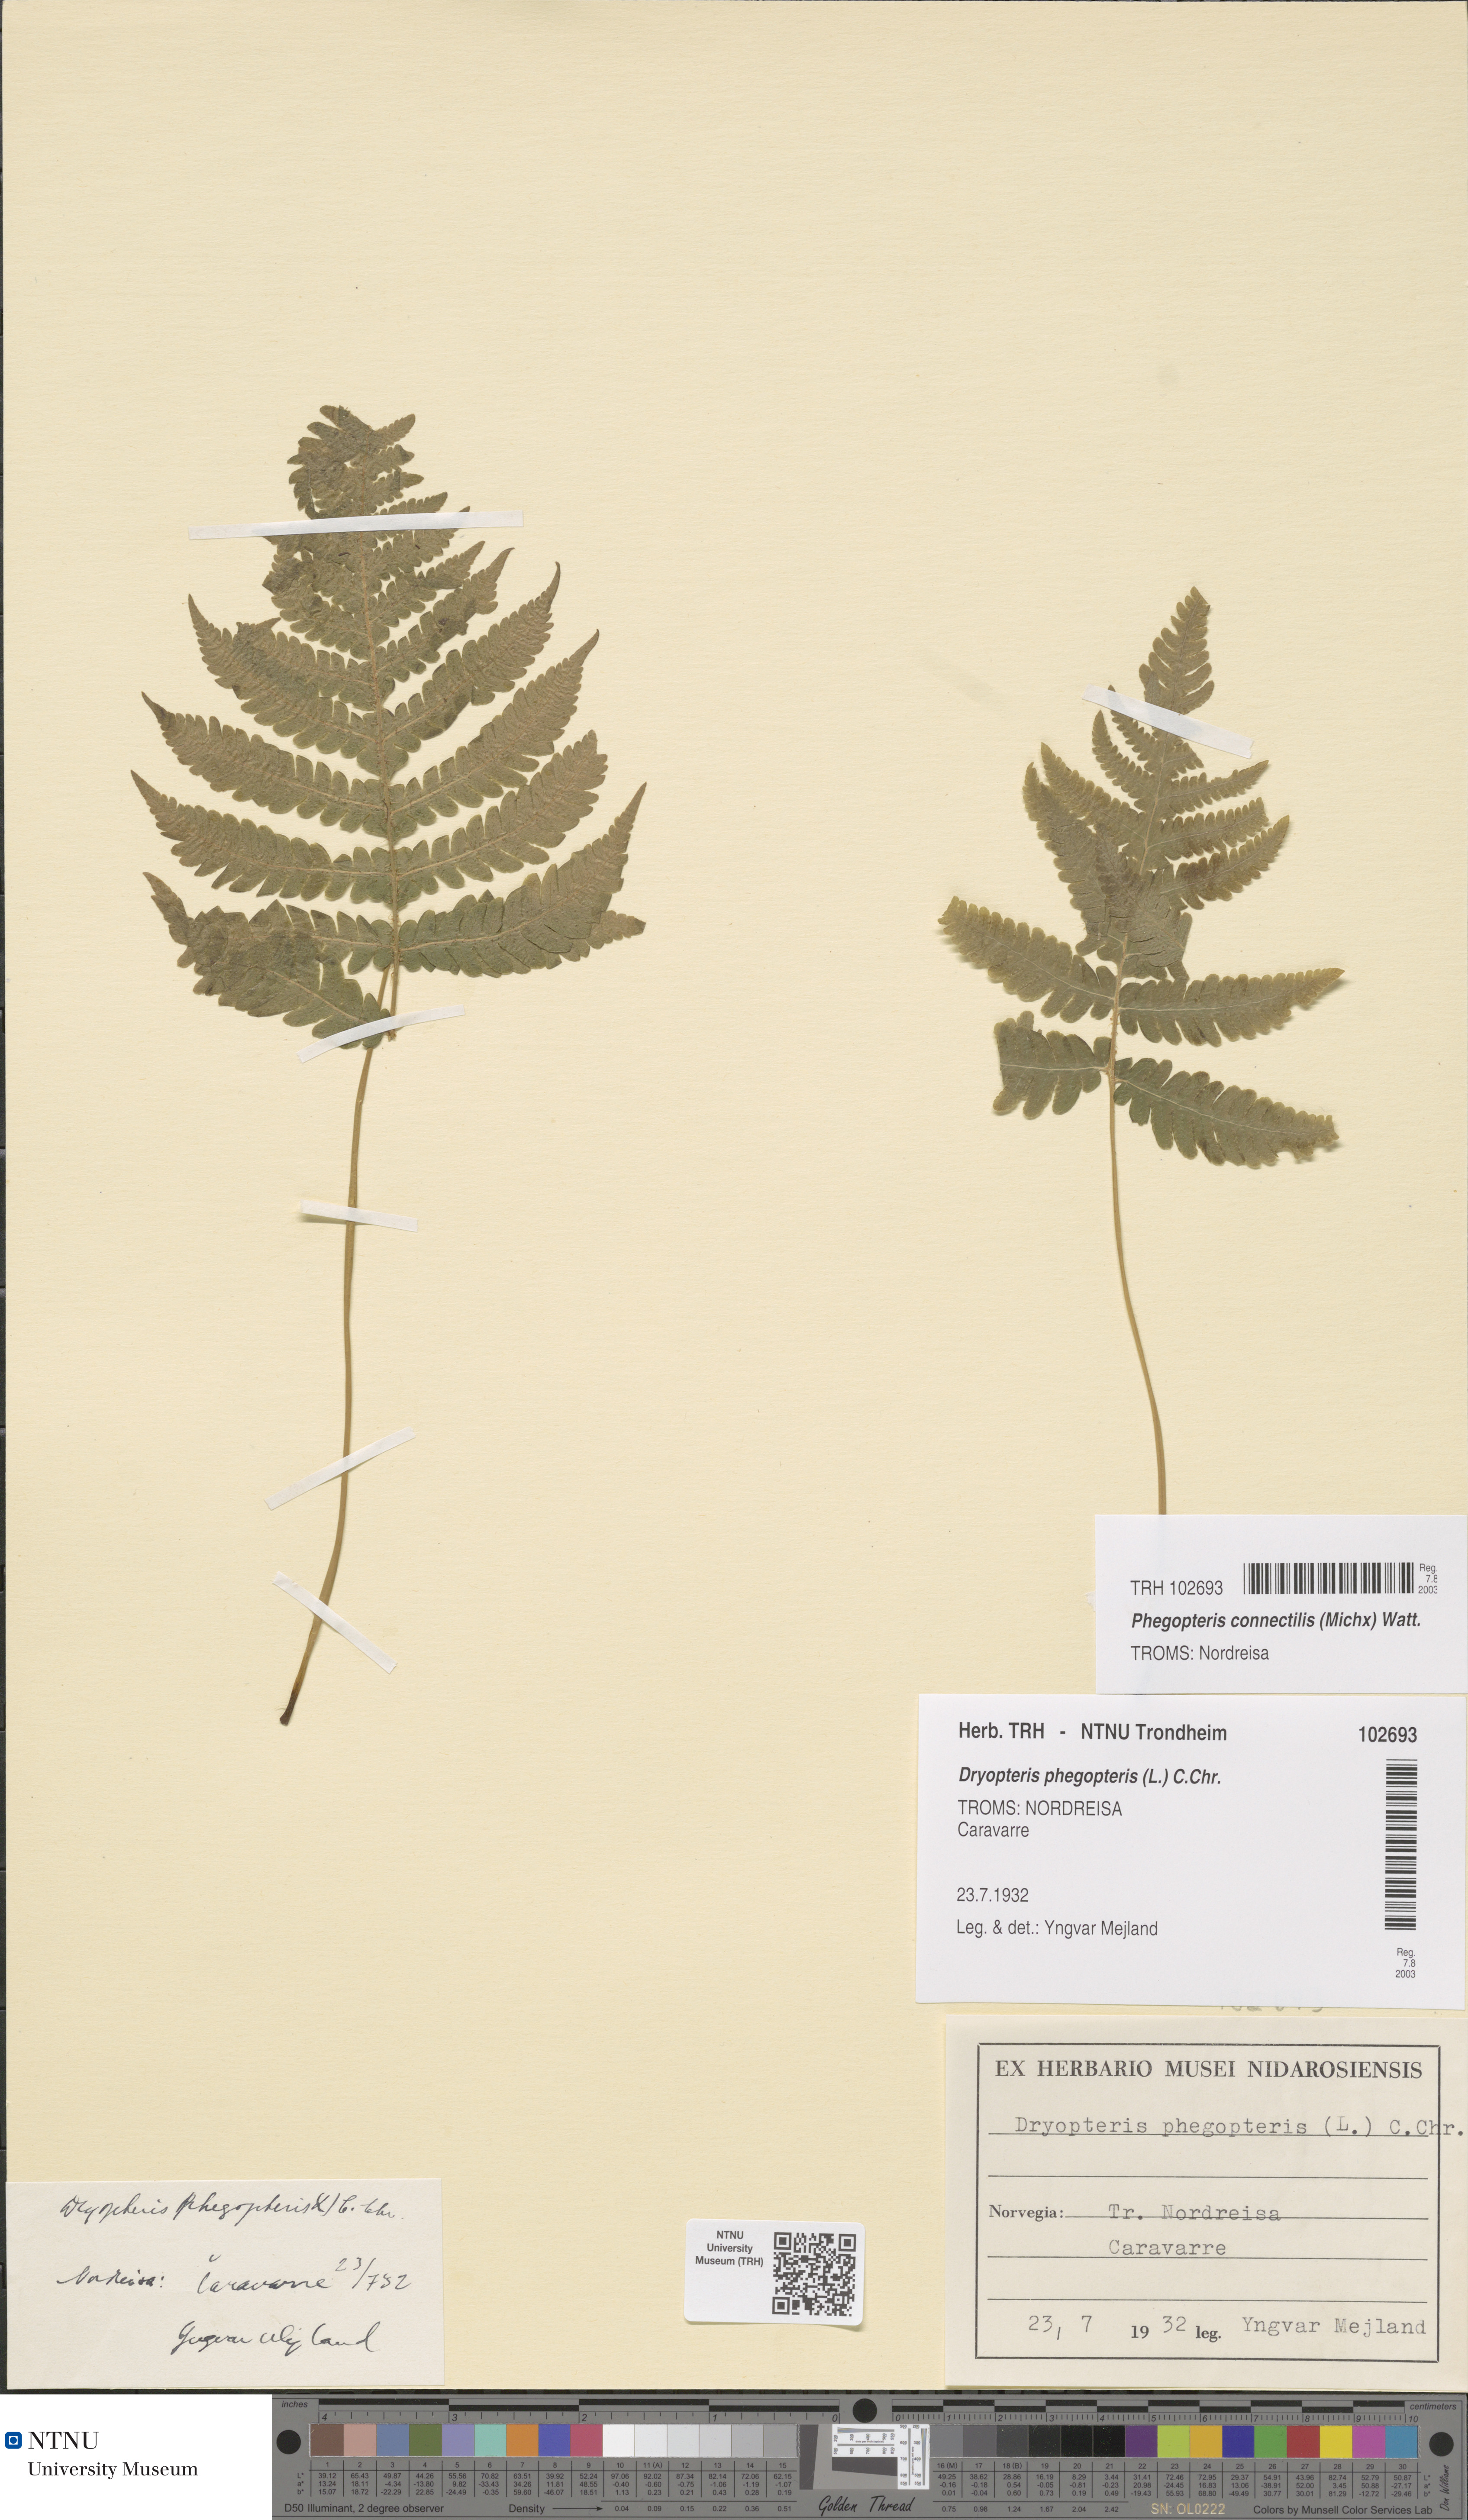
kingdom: Plantae
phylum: Tracheophyta
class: Polypodiopsida
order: Polypodiales
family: Thelypteridaceae
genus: Phegopteris
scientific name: Phegopteris connectilis
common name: Beech fern
